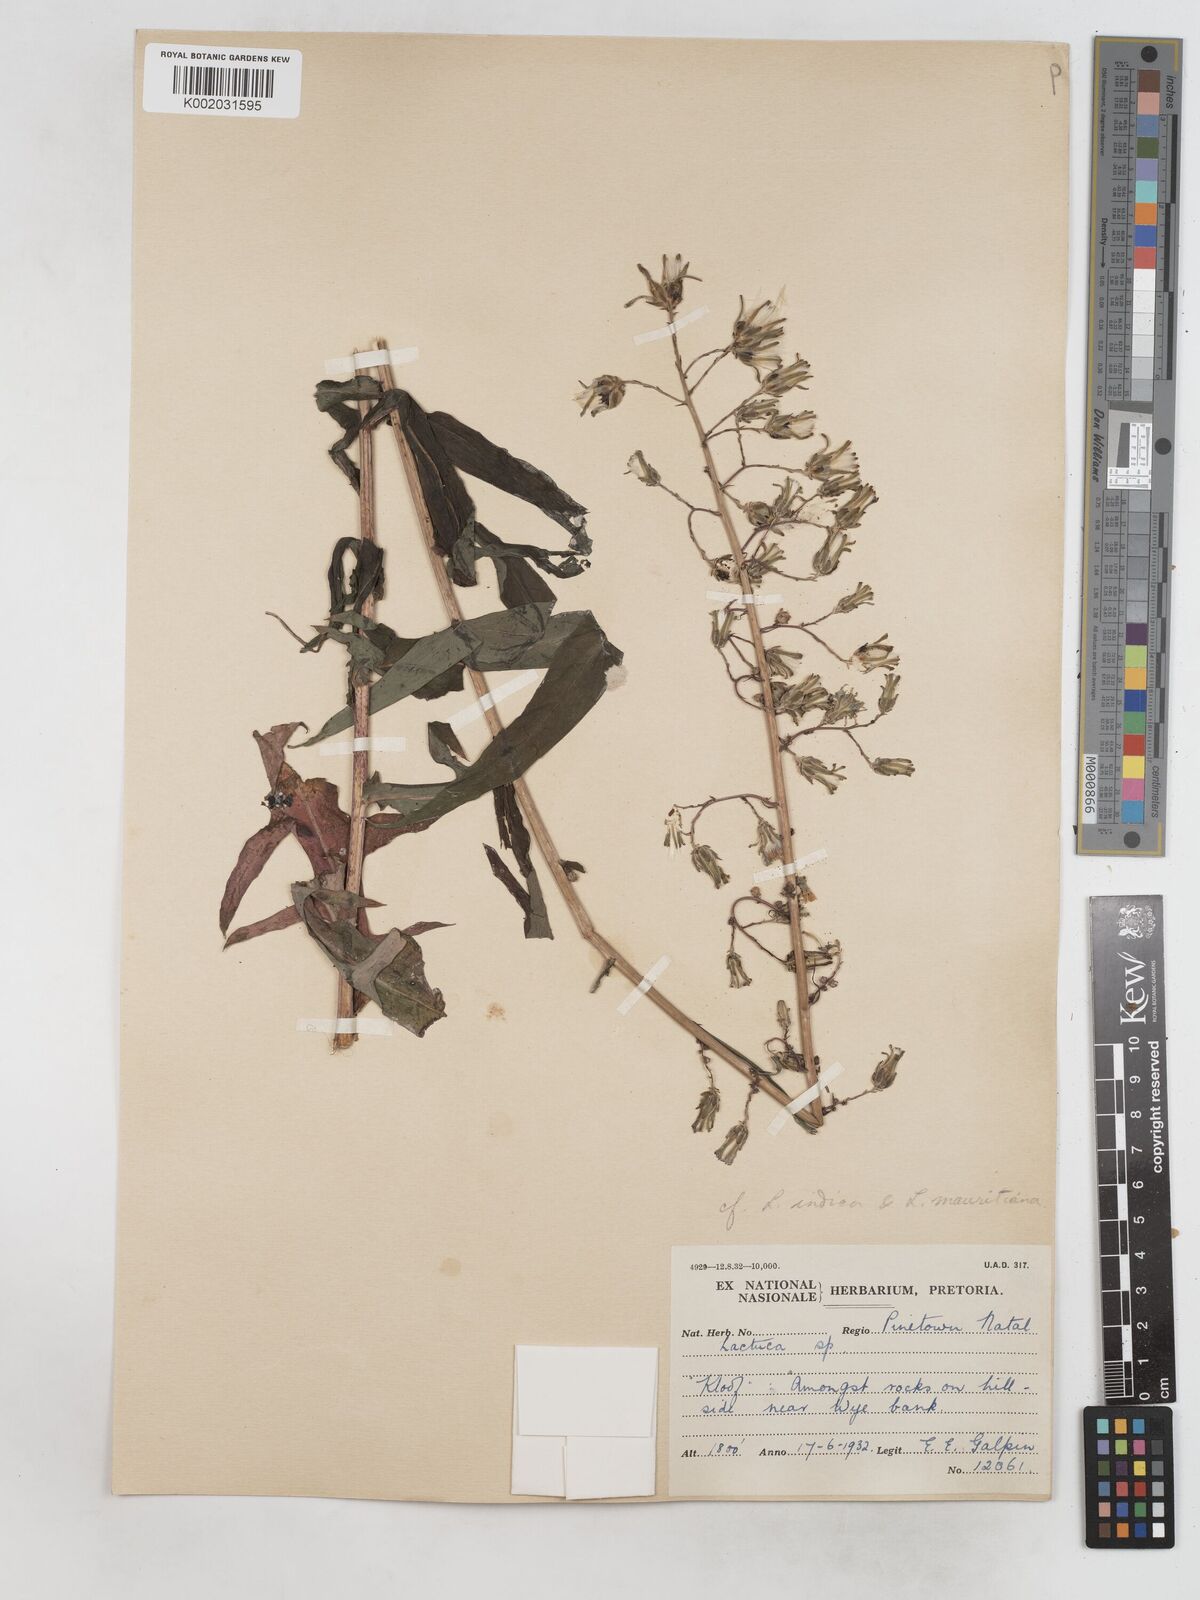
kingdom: Plantae
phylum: Tracheophyta
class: Magnoliopsida
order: Asterales
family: Asteraceae
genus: Lactuca
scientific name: Lactuca indica
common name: Wild lettuce
